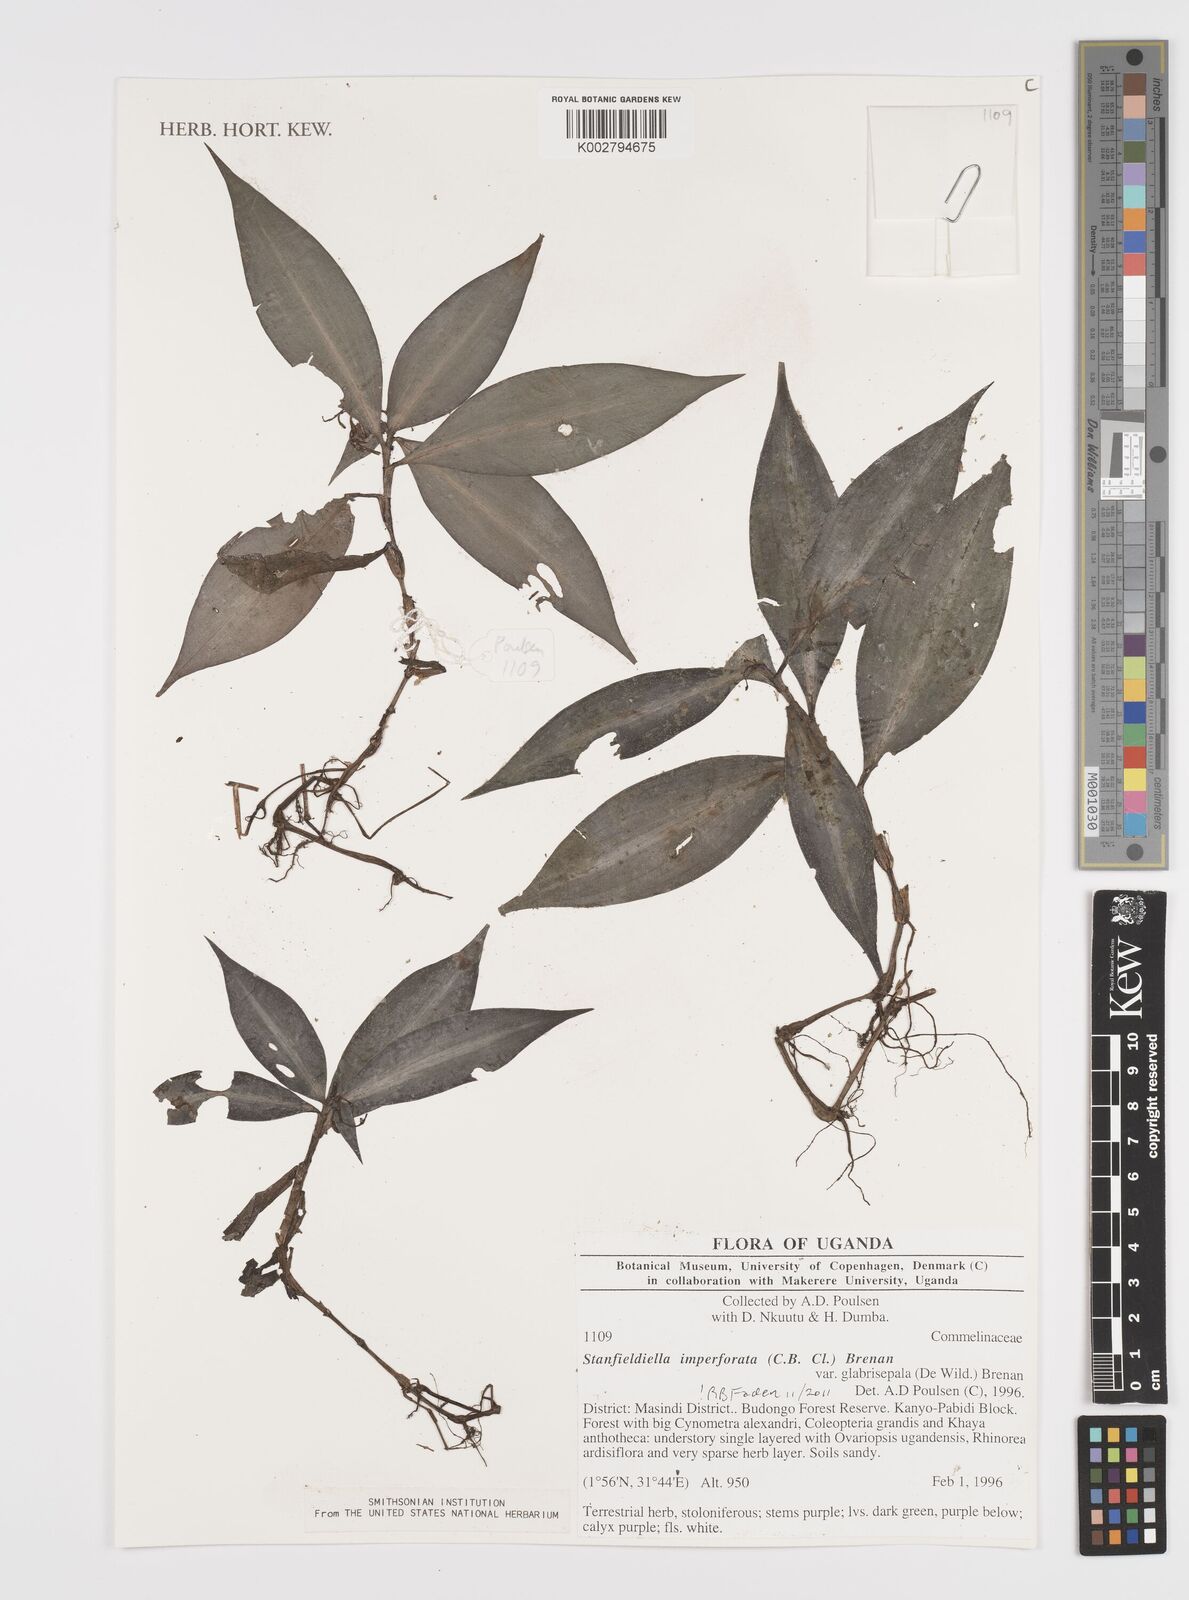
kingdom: Plantae
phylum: Tracheophyta
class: Liliopsida
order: Commelinales
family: Commelinaceae
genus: Stanfieldiella
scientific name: Stanfieldiella imperforata
